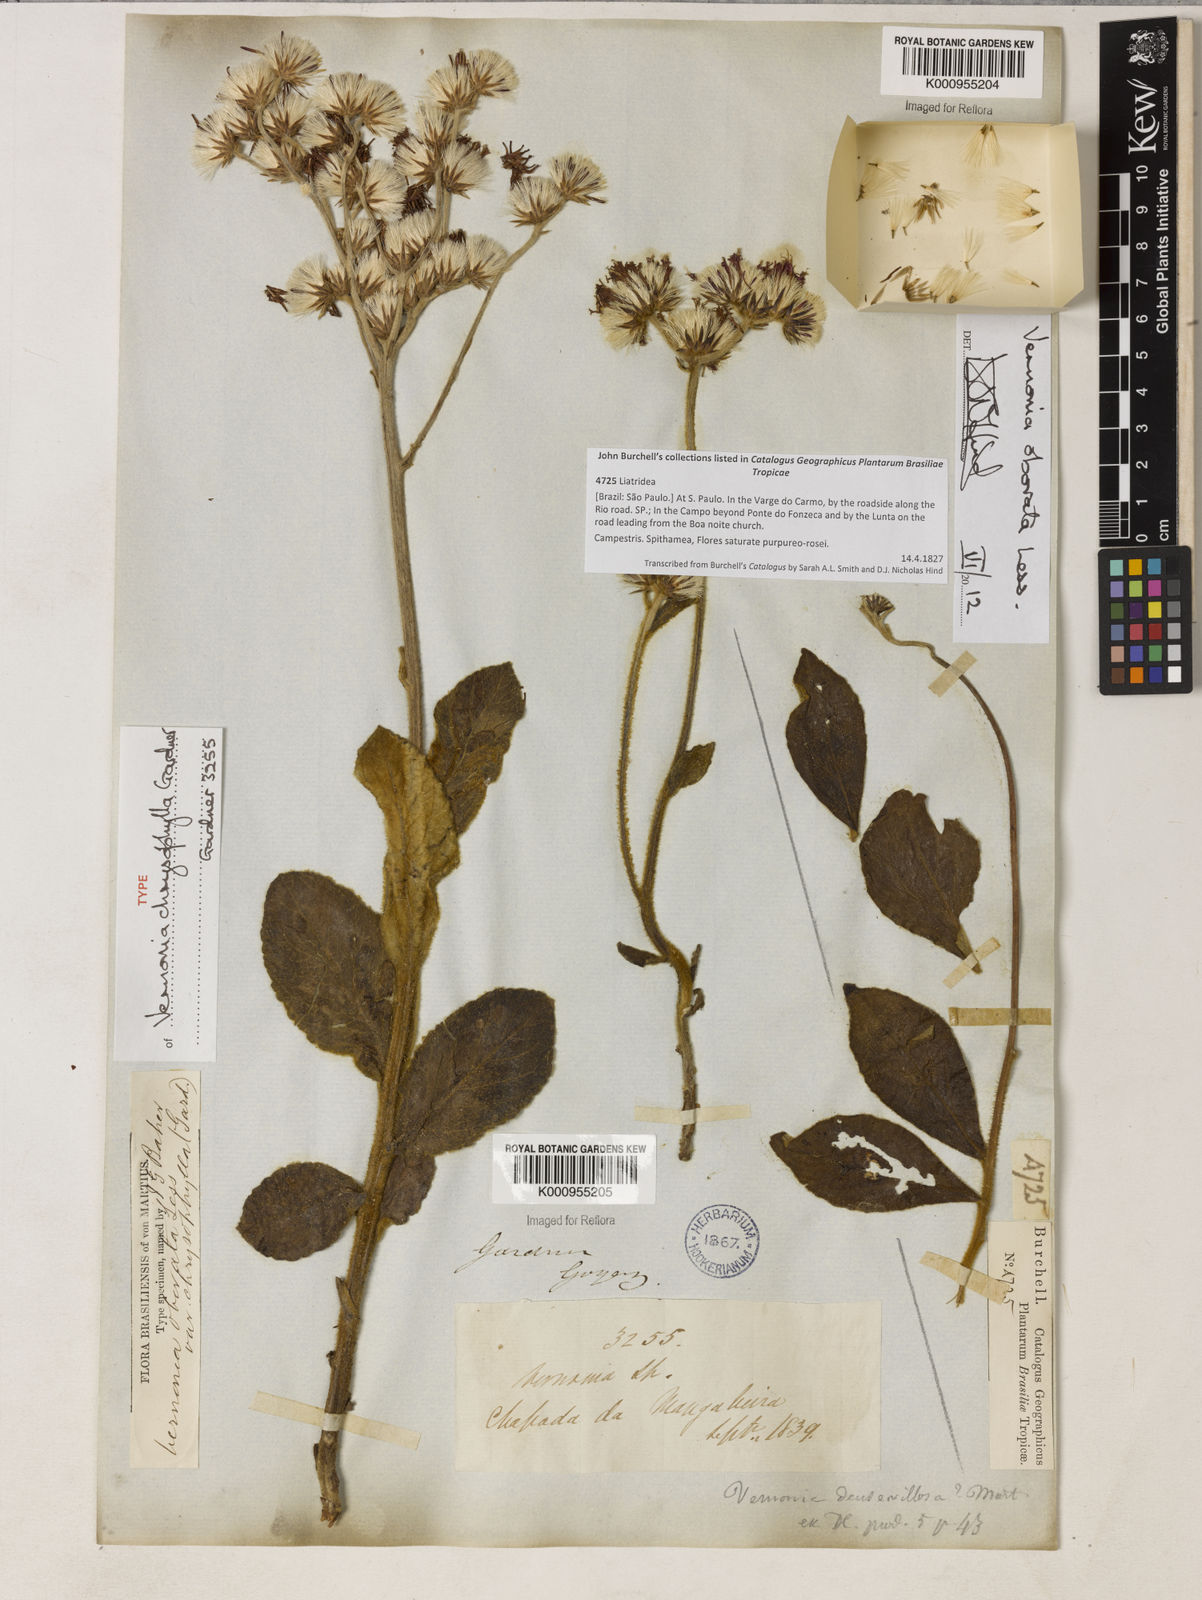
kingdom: Plantae
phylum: Tracheophyta
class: Magnoliopsida
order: Asterales
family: Asteraceae
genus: Chrysolaena
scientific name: Chrysolaena obovata
